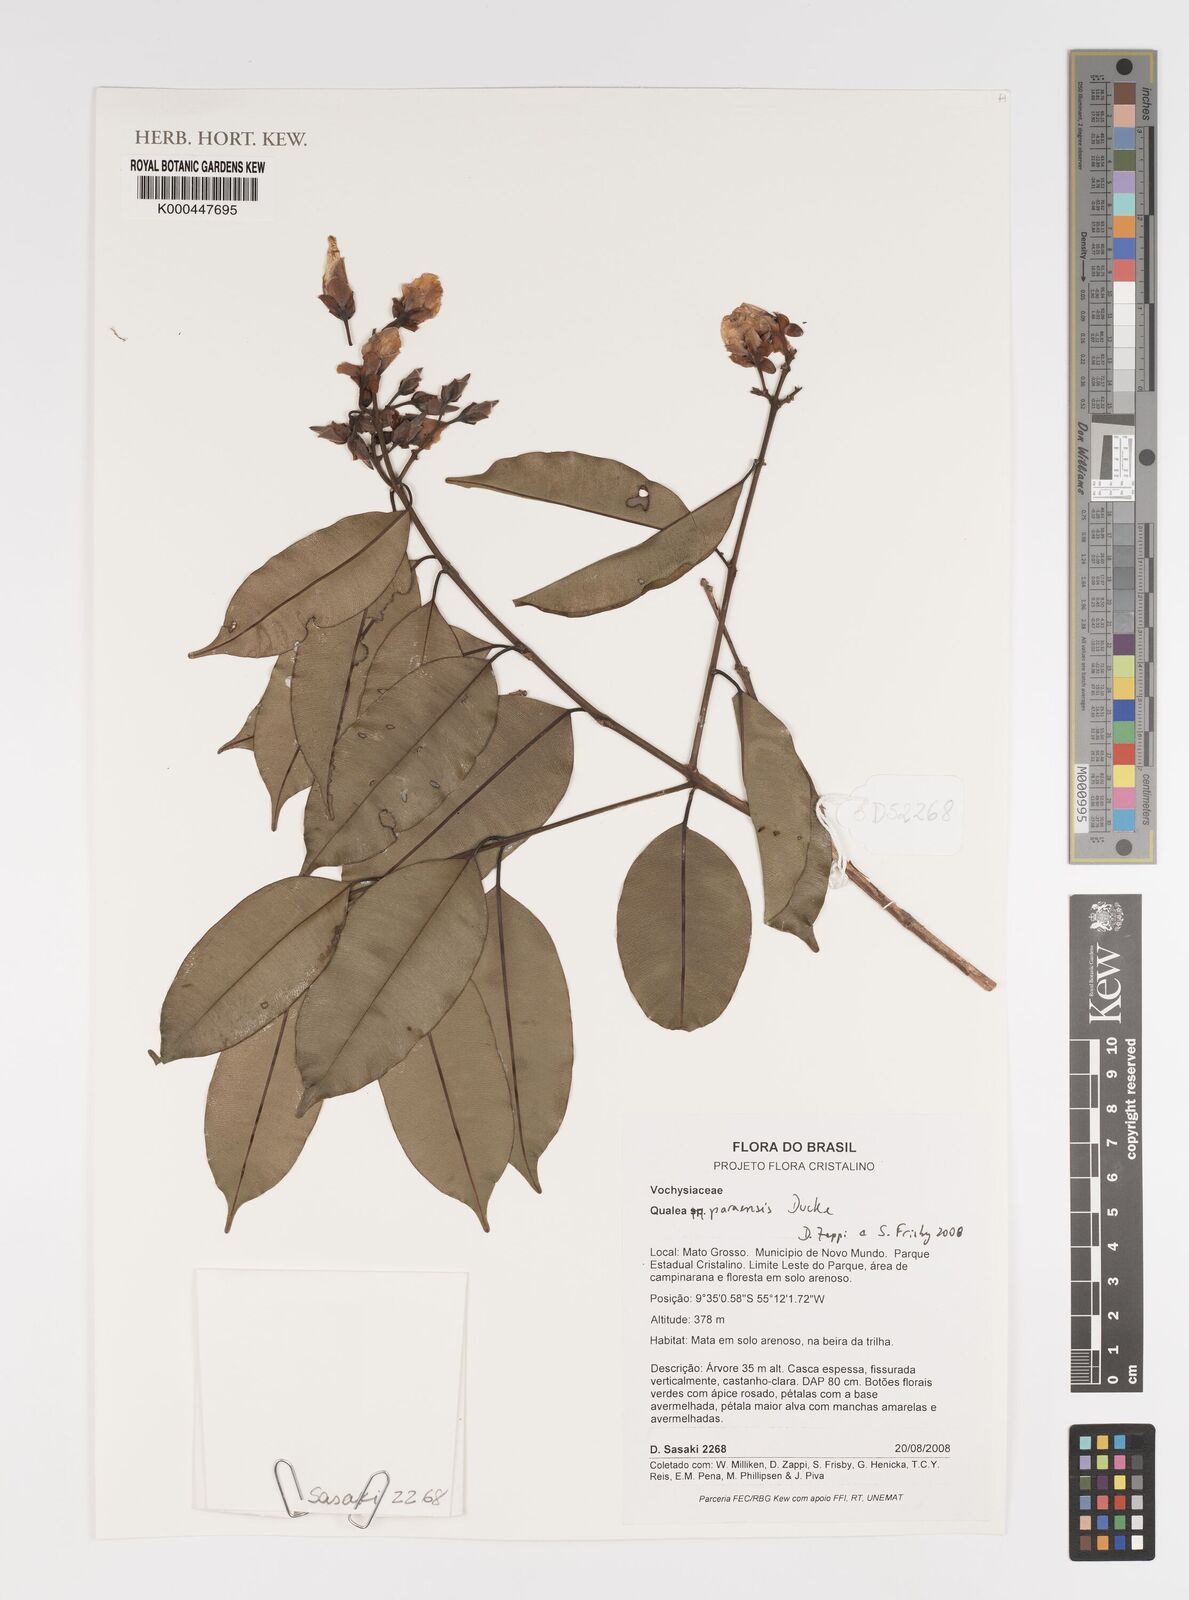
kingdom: Plantae
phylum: Tracheophyta
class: Magnoliopsida
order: Myrtales
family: Vochysiaceae
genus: Qualea
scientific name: Qualea paraensis
